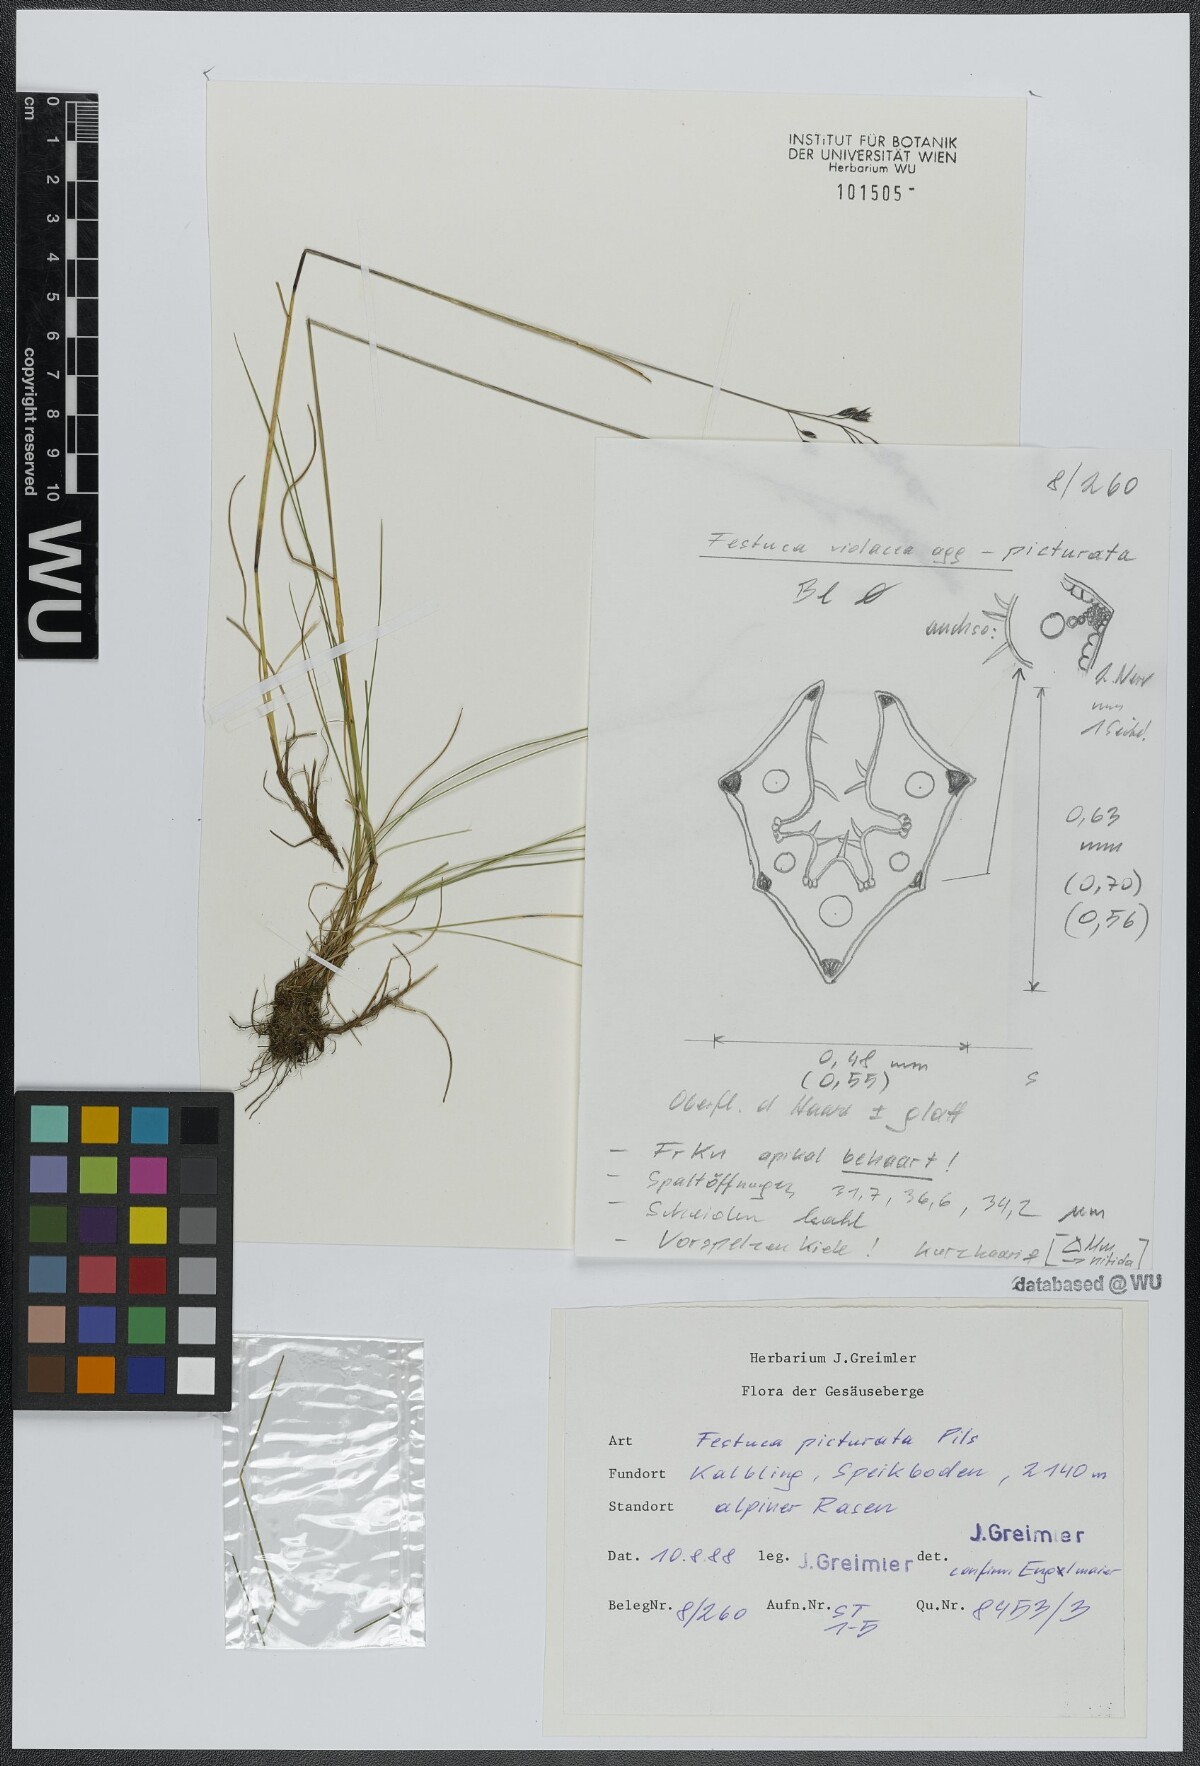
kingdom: Plantae
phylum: Tracheophyta
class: Liliopsida
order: Poales
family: Poaceae
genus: Festuca
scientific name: Festuca picturata
